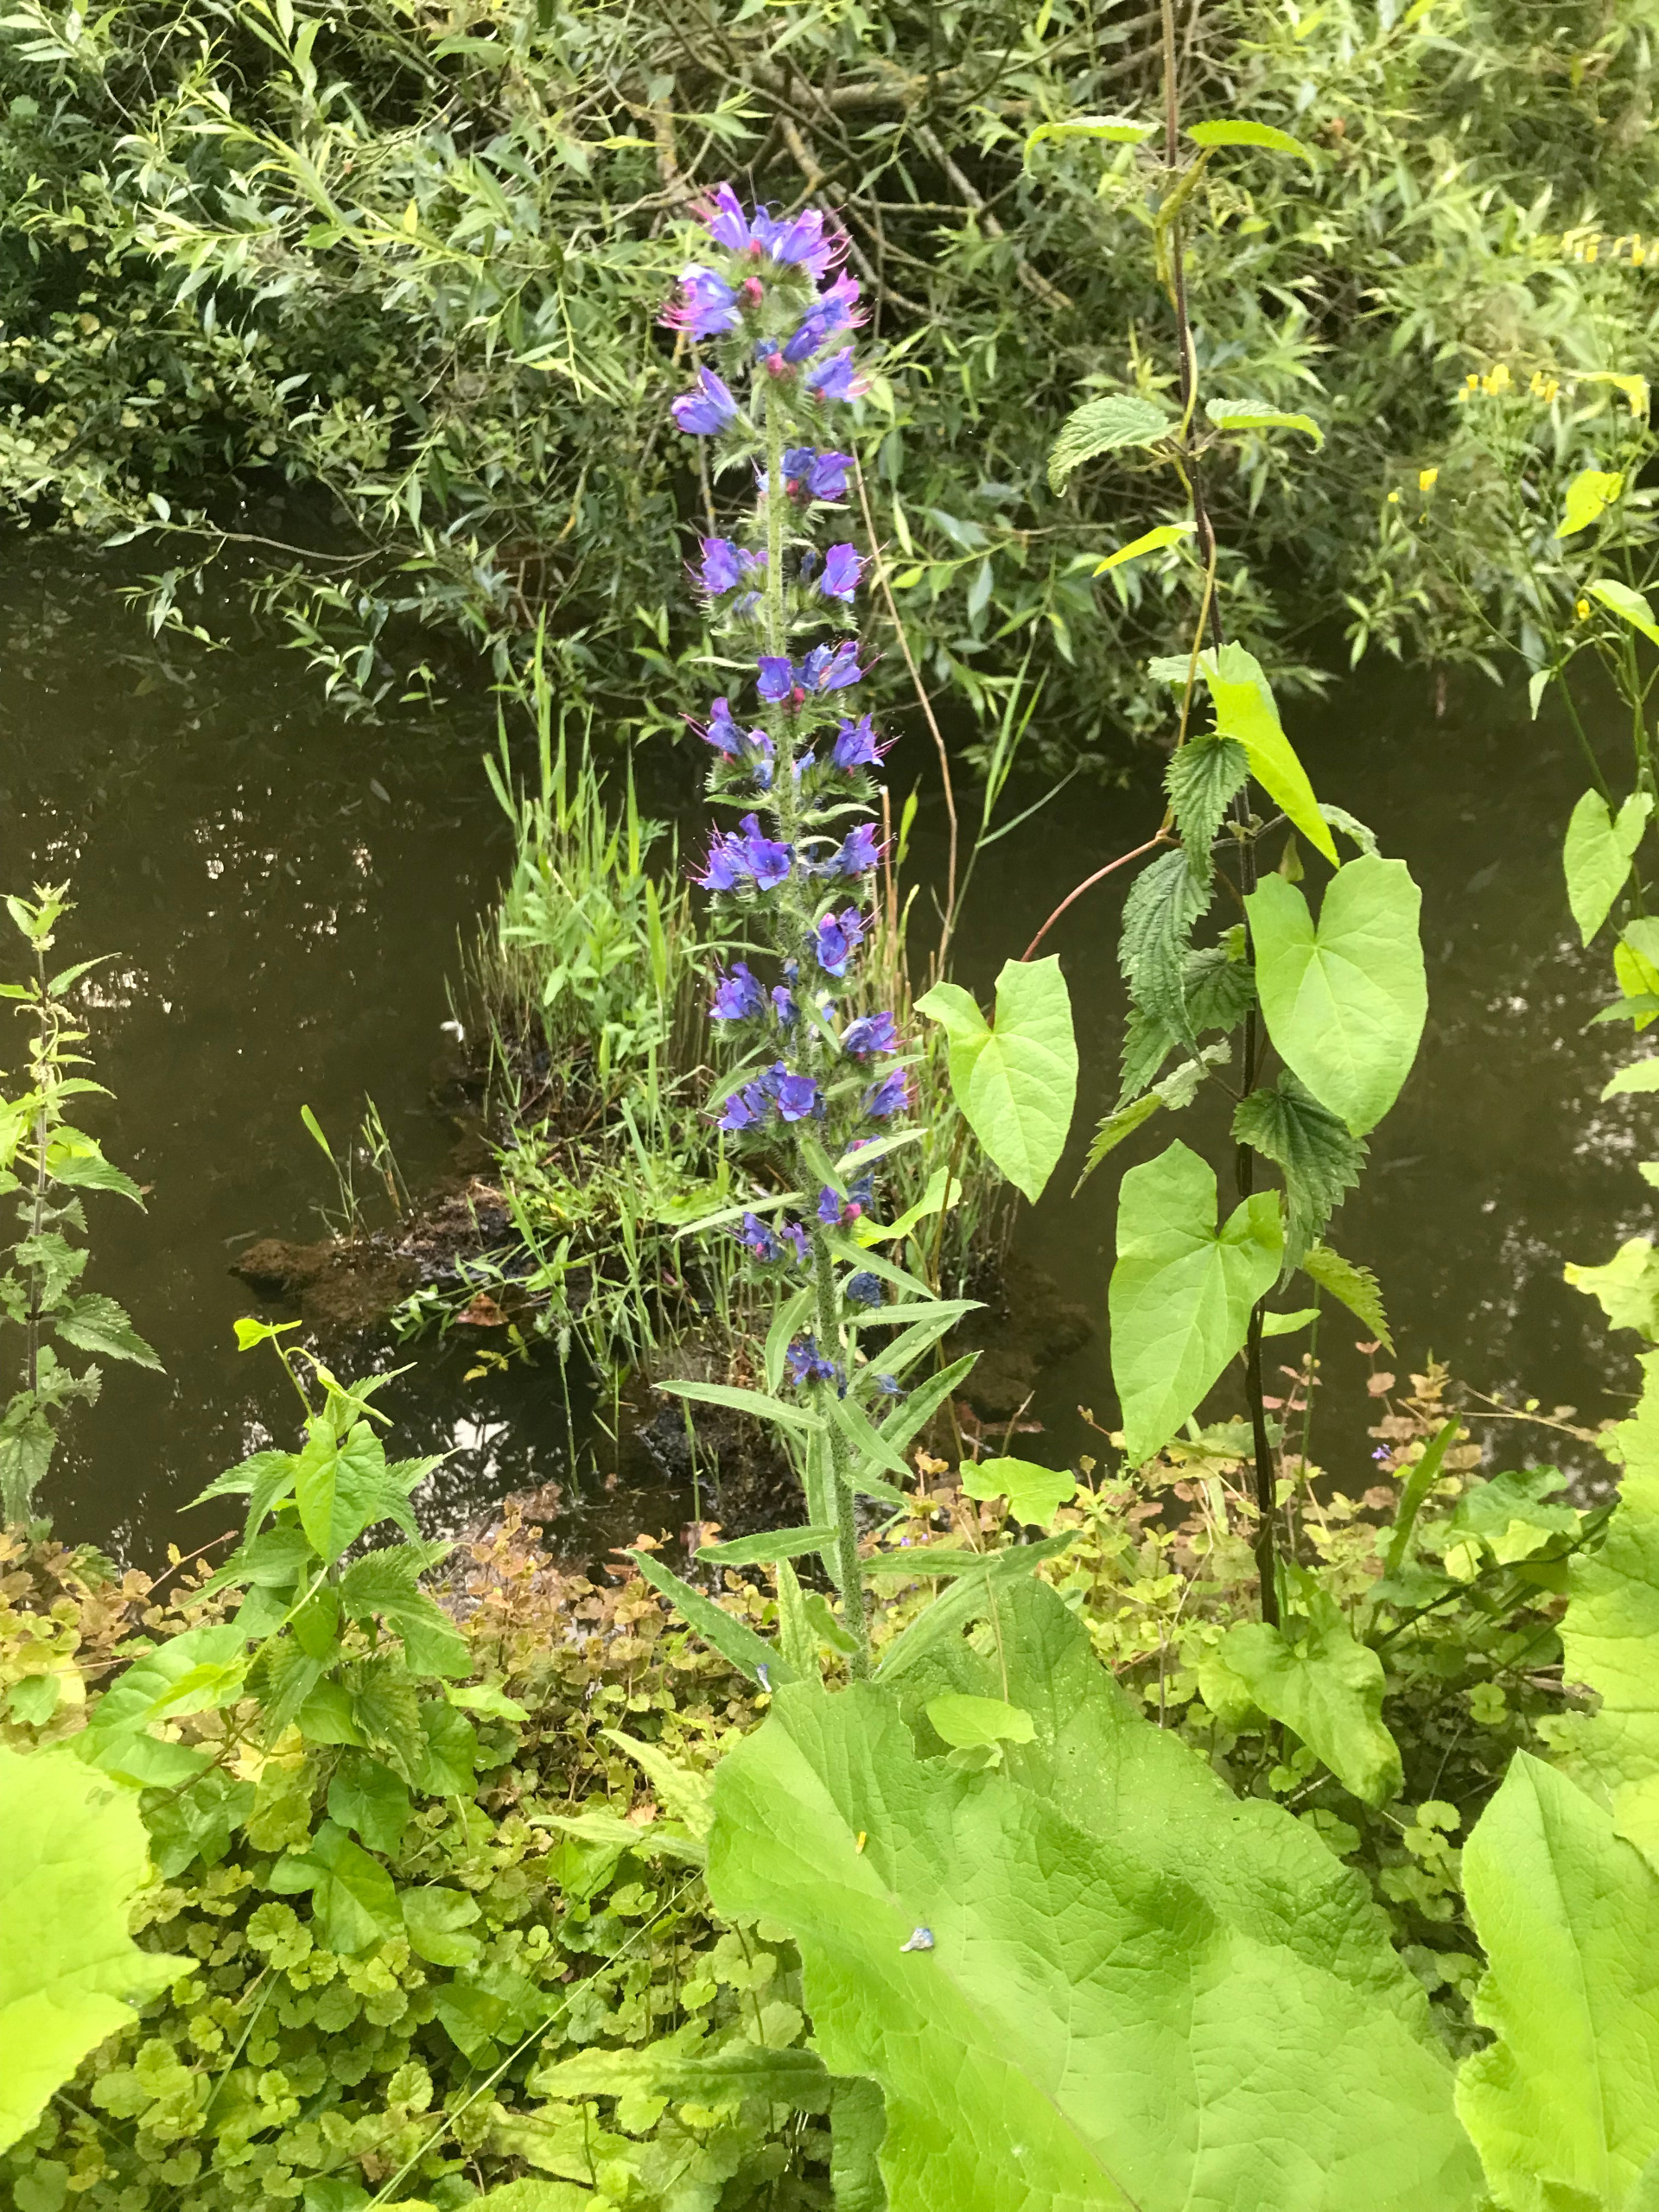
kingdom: Plantae
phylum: Tracheophyta
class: Magnoliopsida
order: Boraginales
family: Boraginaceae
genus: Echium
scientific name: Echium vulgare
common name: Slangehoved
